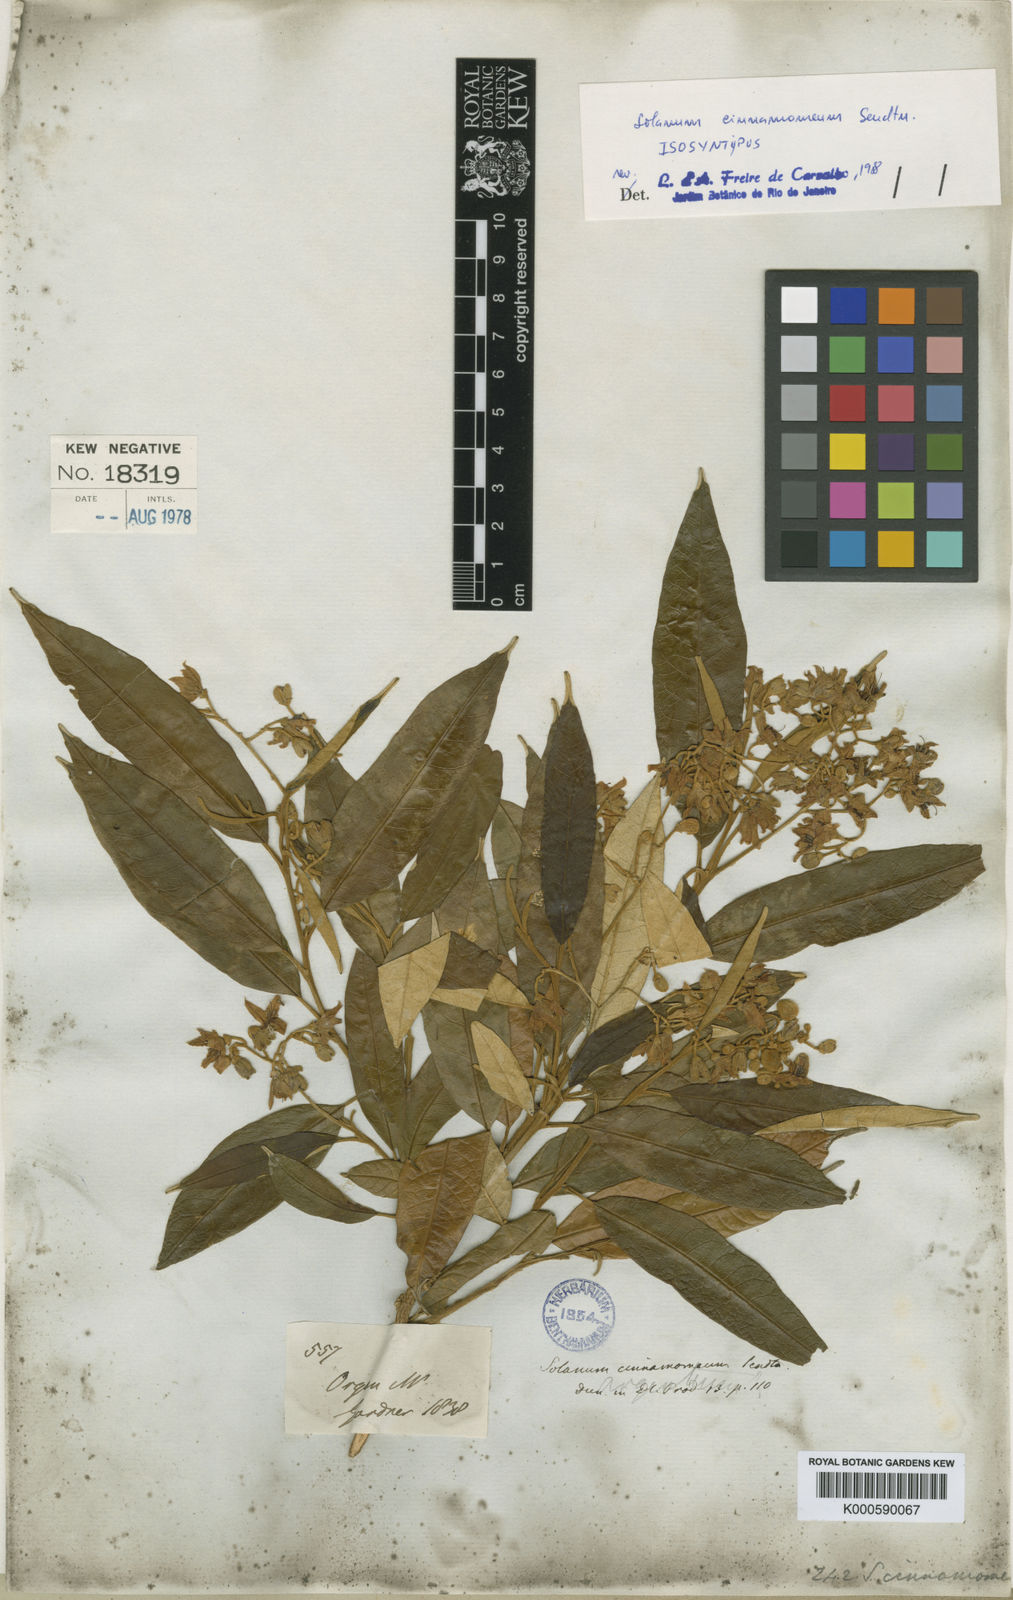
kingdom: Plantae
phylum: Tracheophyta
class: Magnoliopsida
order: Solanales
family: Solanaceae
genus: Solanum
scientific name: Solanum cinnamomeum
